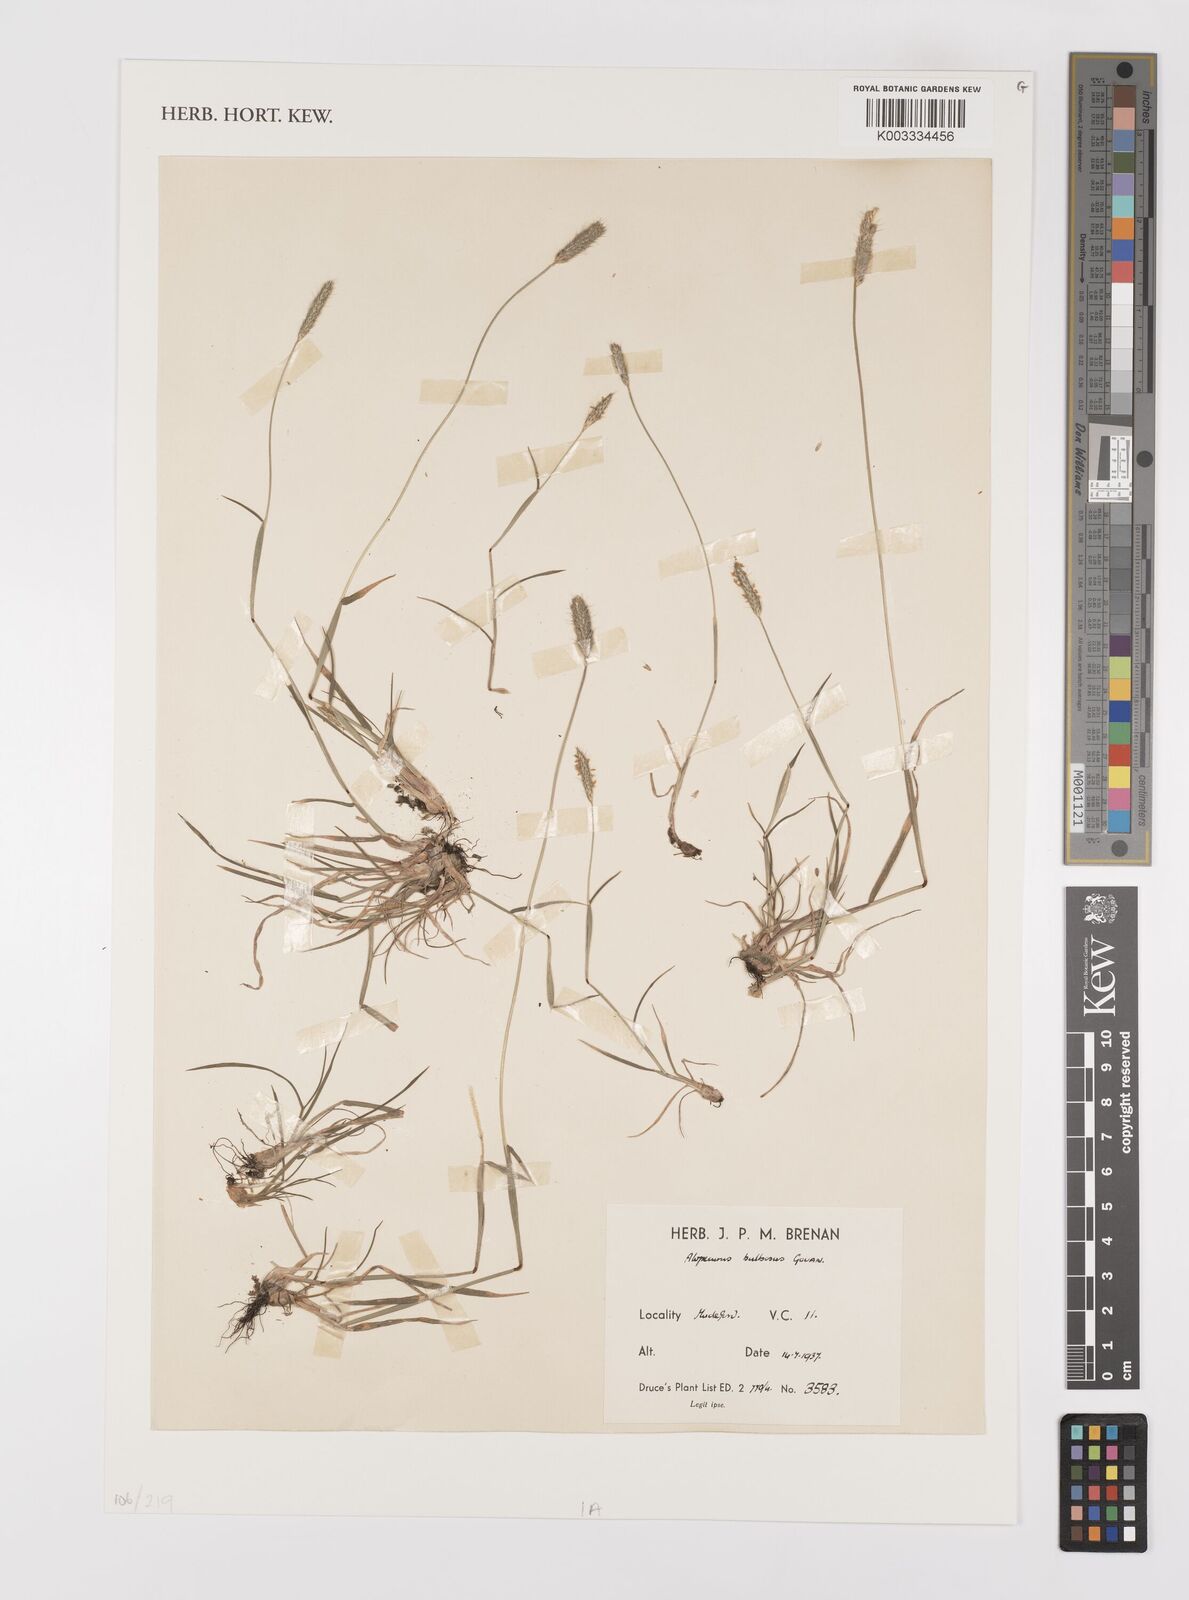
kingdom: Plantae
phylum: Tracheophyta
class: Liliopsida
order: Poales
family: Poaceae
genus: Alopecurus
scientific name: Alopecurus bulbosus
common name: Bulbous foxtail
